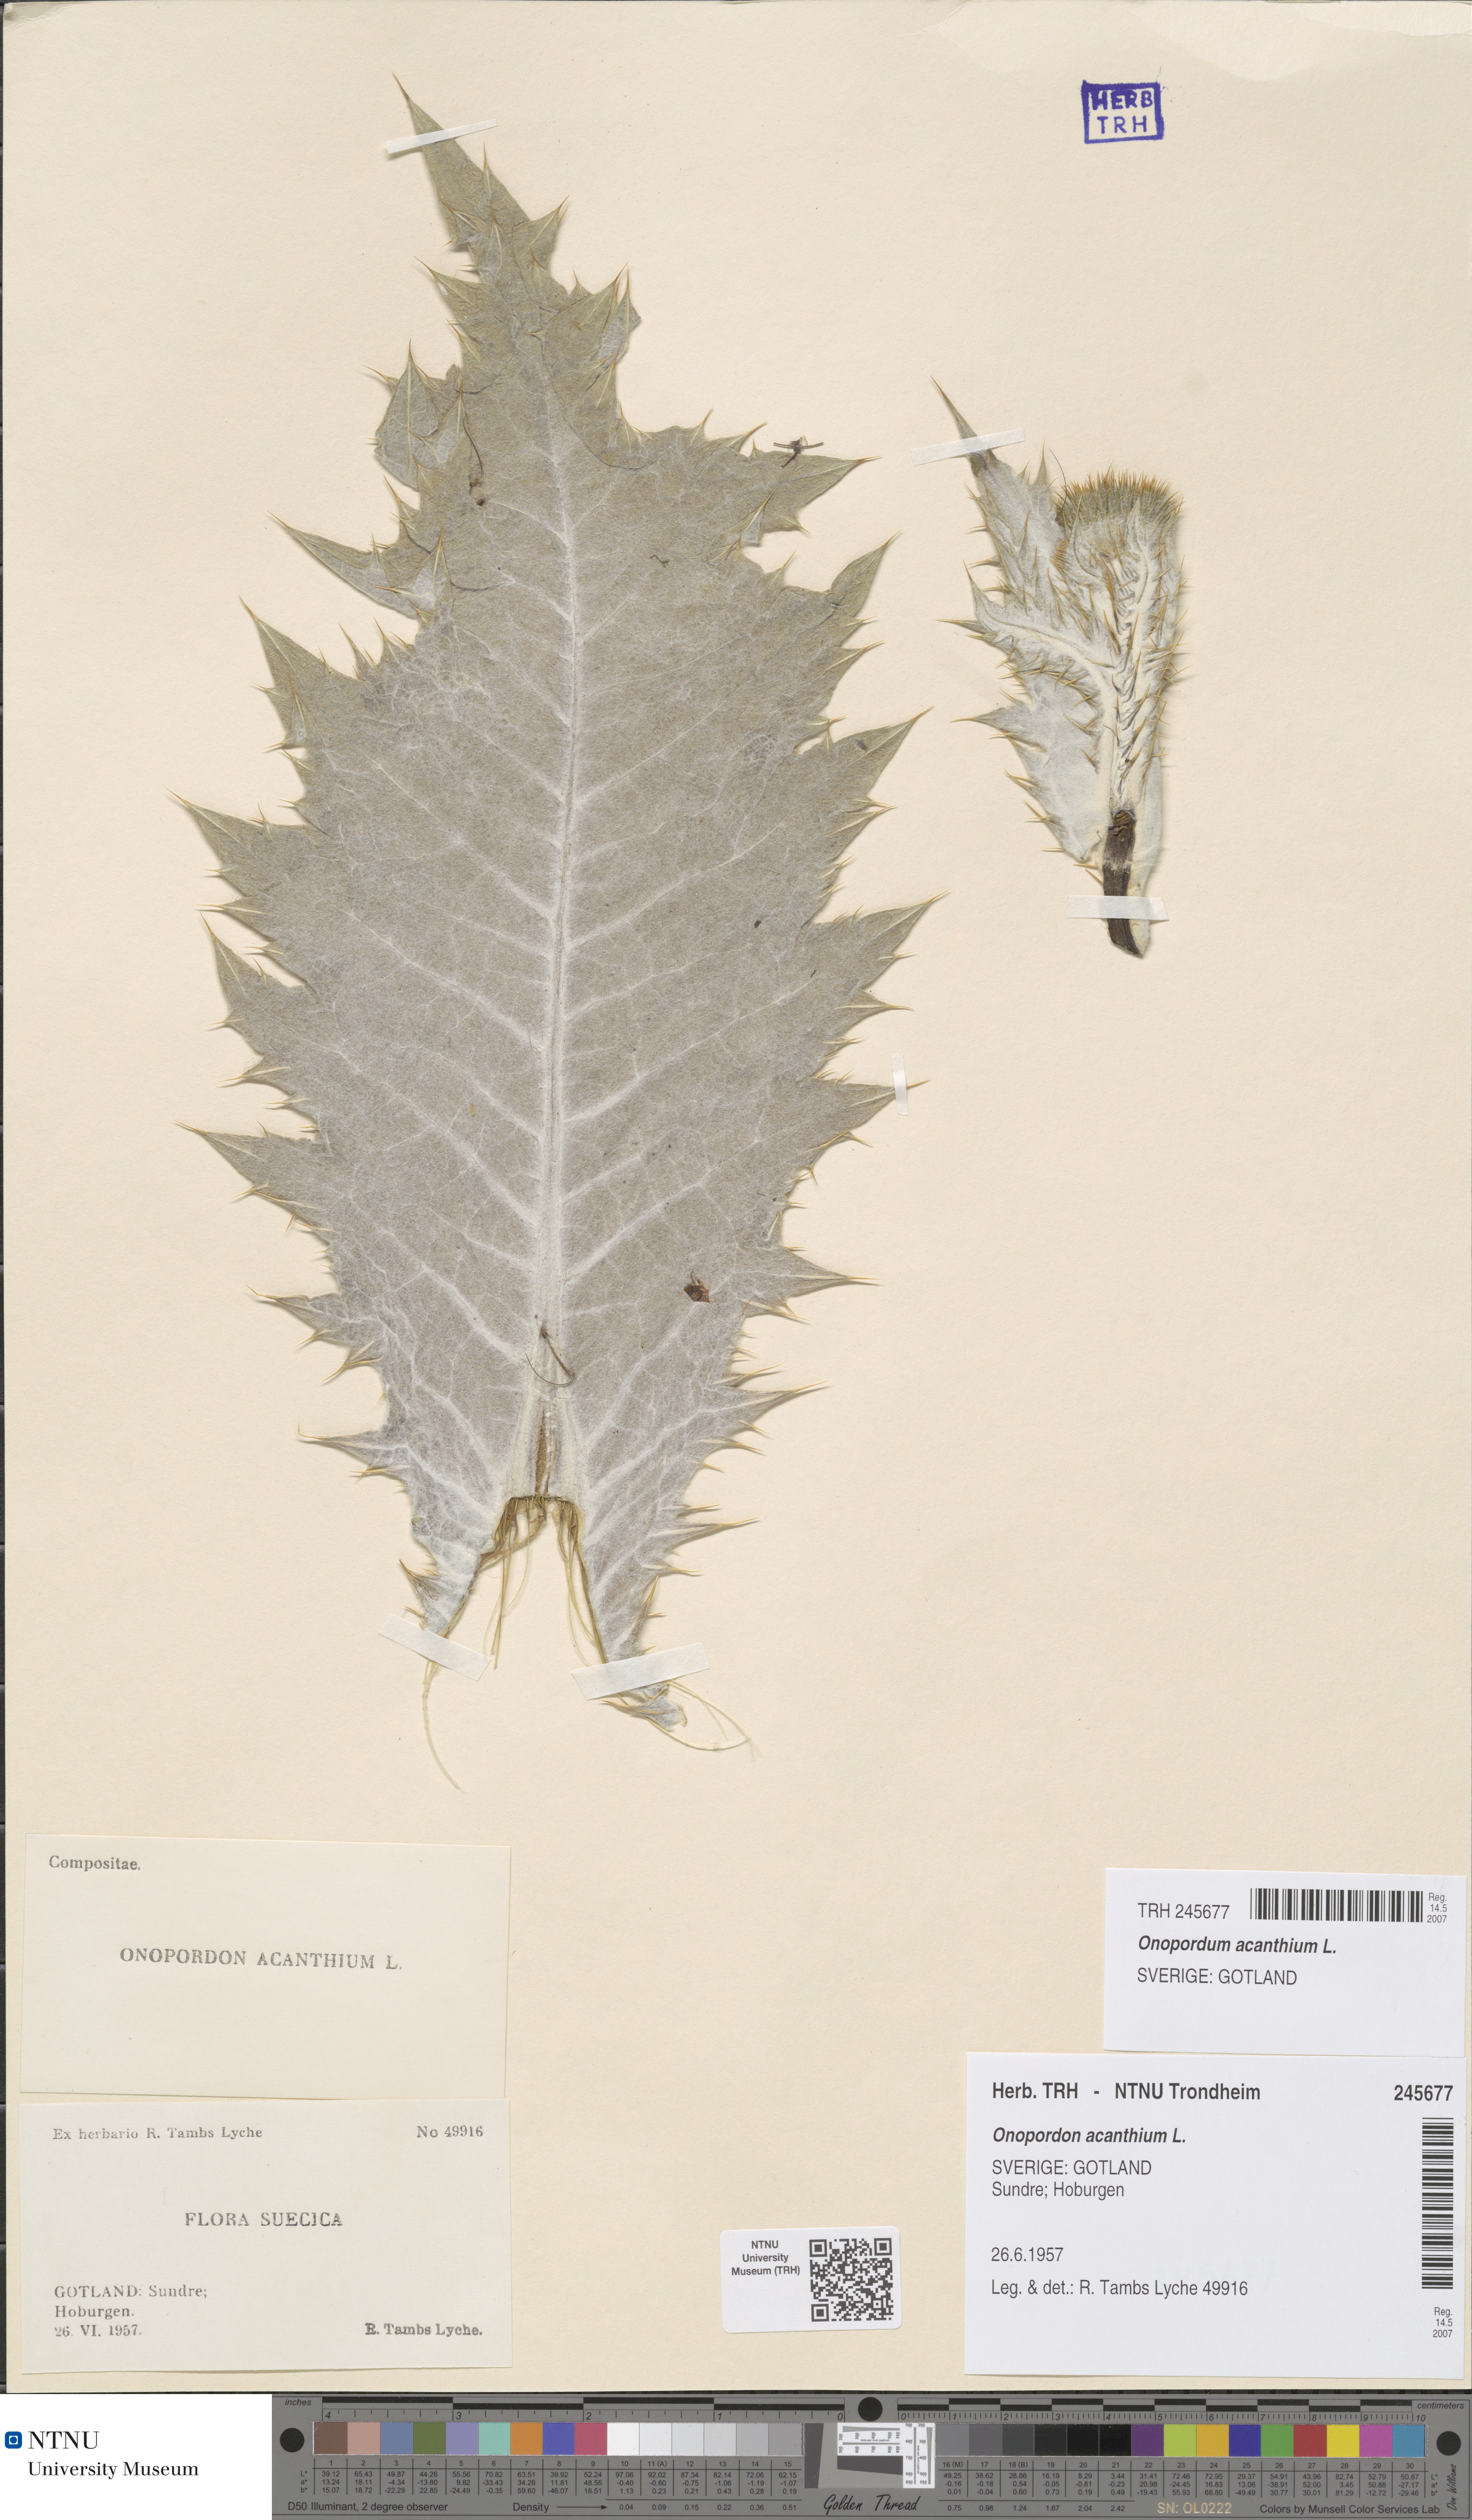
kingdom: Plantae
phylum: Tracheophyta
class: Magnoliopsida
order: Asterales
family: Asteraceae
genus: Onopordum
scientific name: Onopordum acanthium
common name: Scotch thistle
